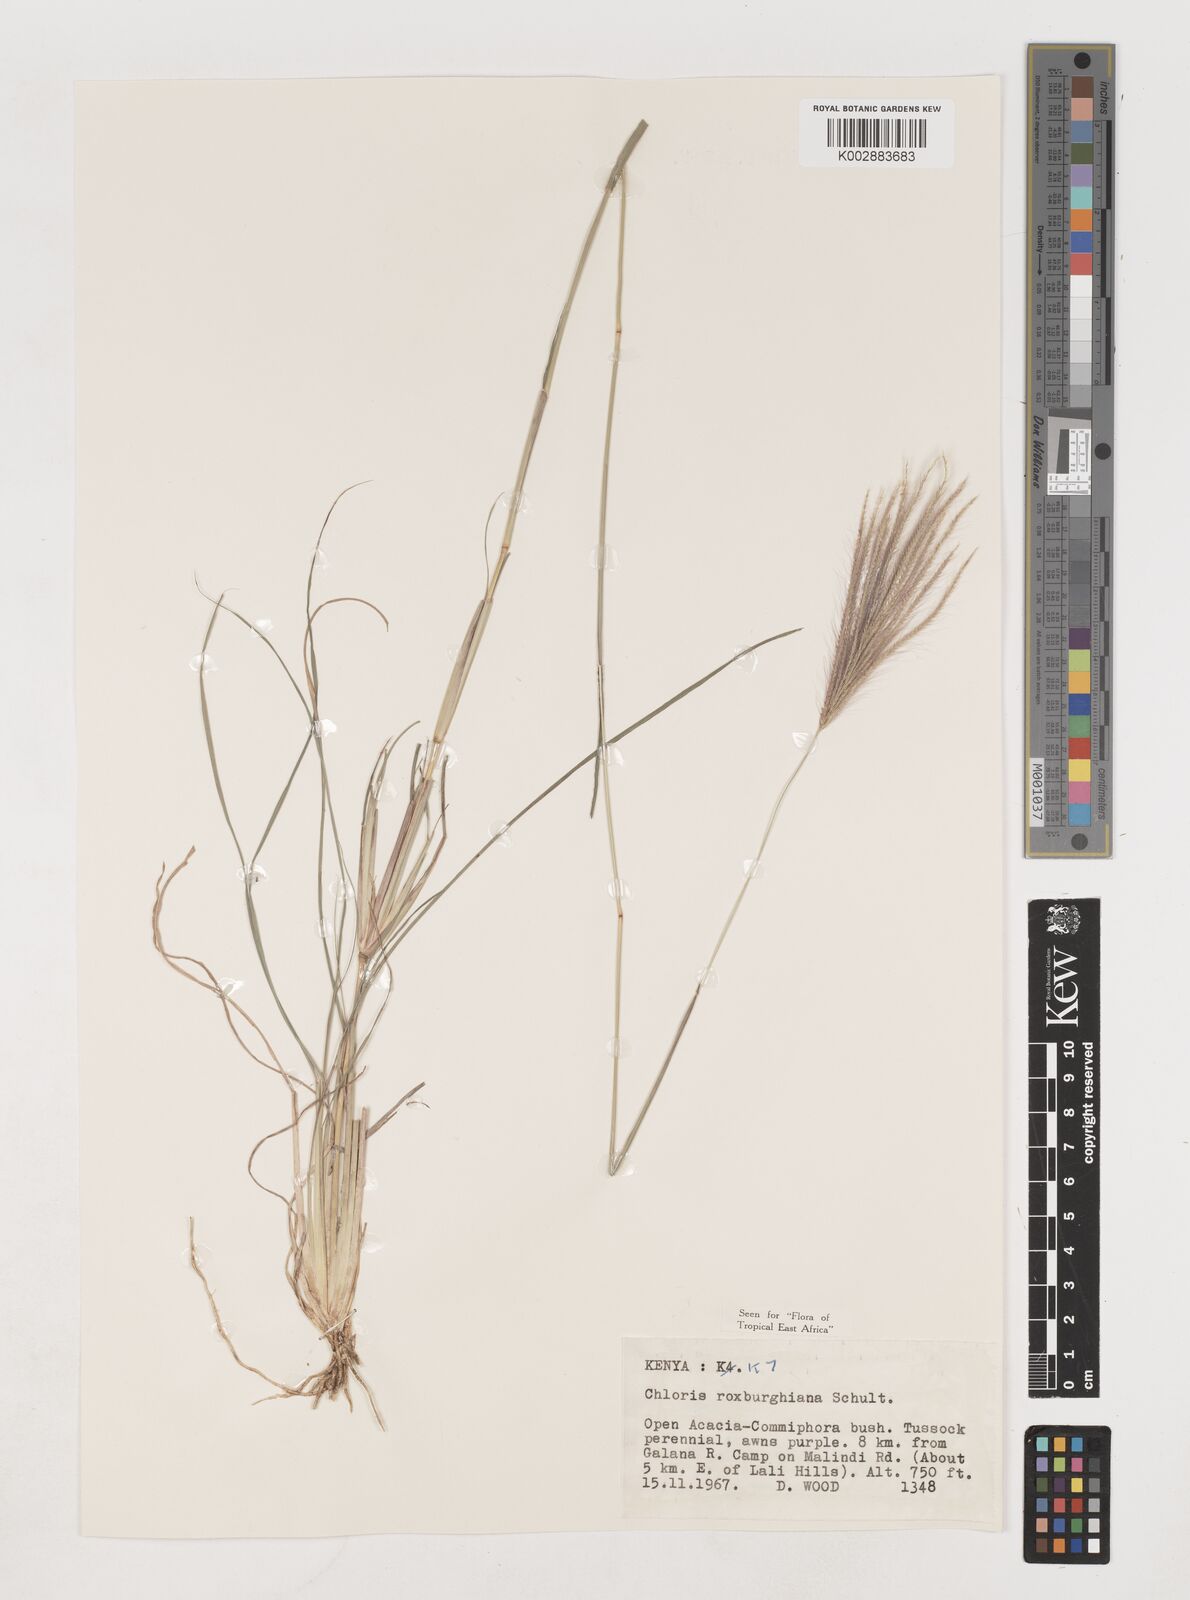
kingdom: Plantae
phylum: Tracheophyta
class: Liliopsida
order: Poales
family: Poaceae
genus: Tetrapogon
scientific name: Tetrapogon roxburghiana
